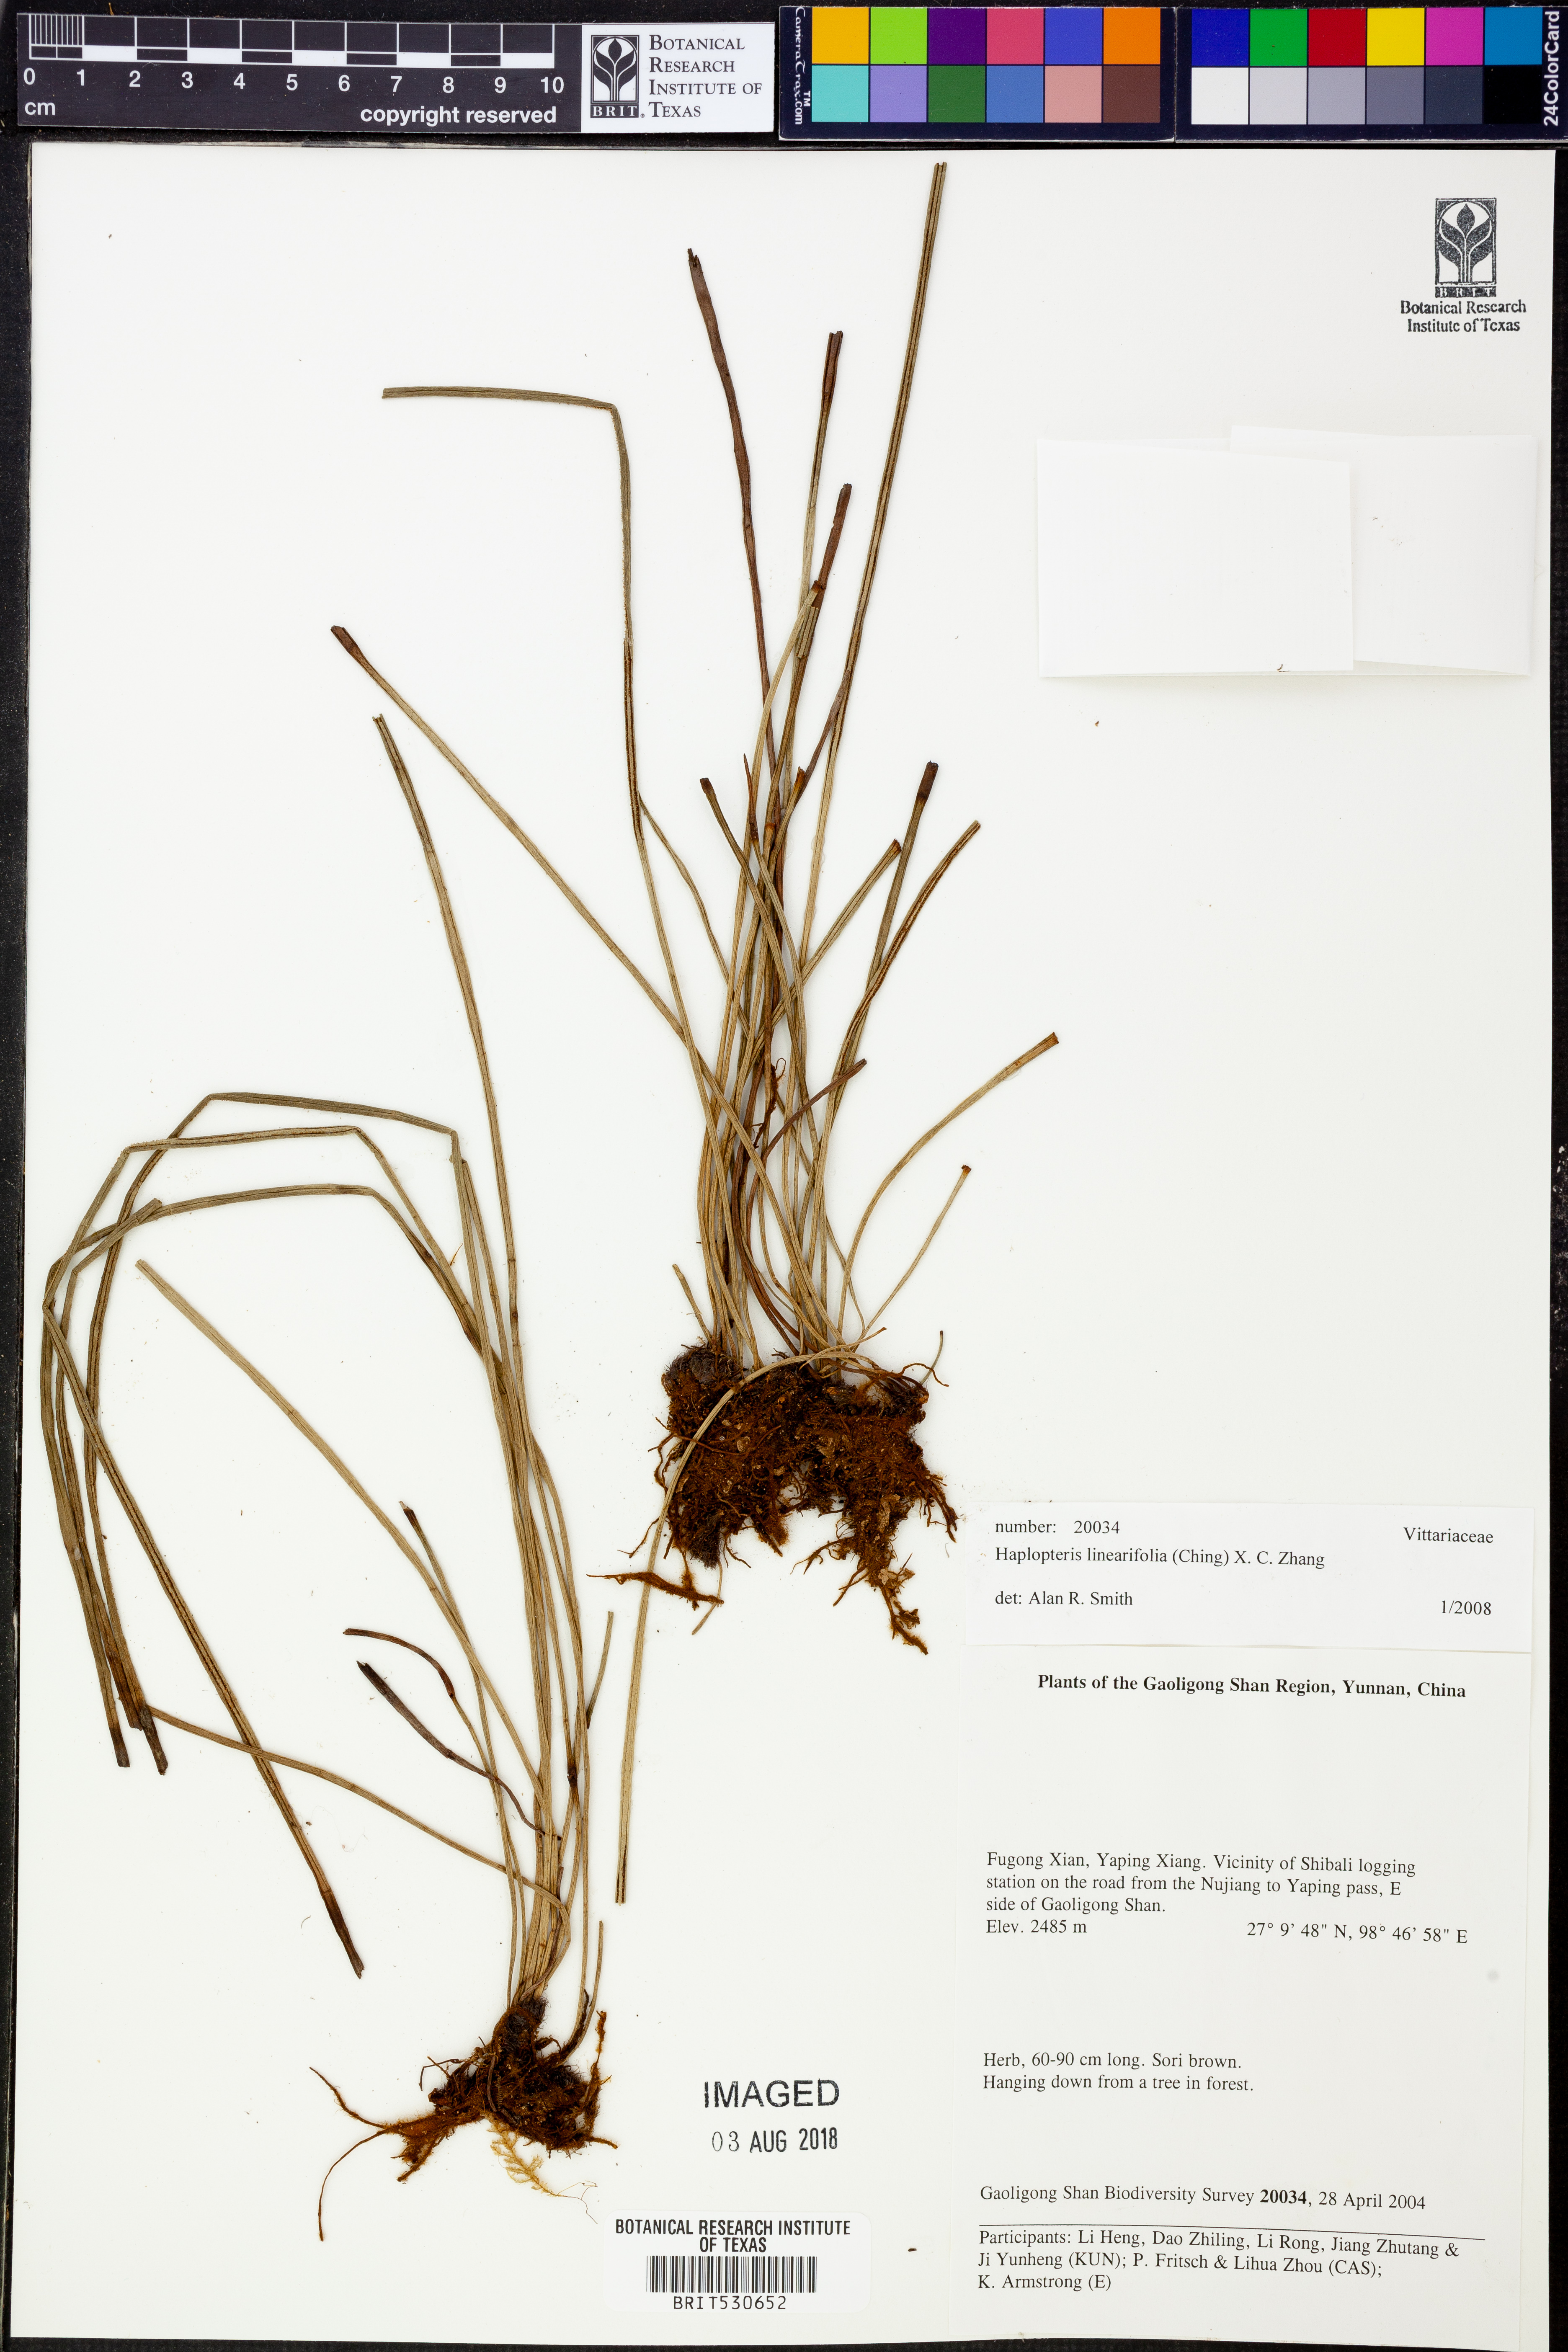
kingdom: Plantae
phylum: Tracheophyta
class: Polypodiopsida
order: Polypodiales
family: Pteridaceae
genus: Haplopteris
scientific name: Haplopteris linearifolia
